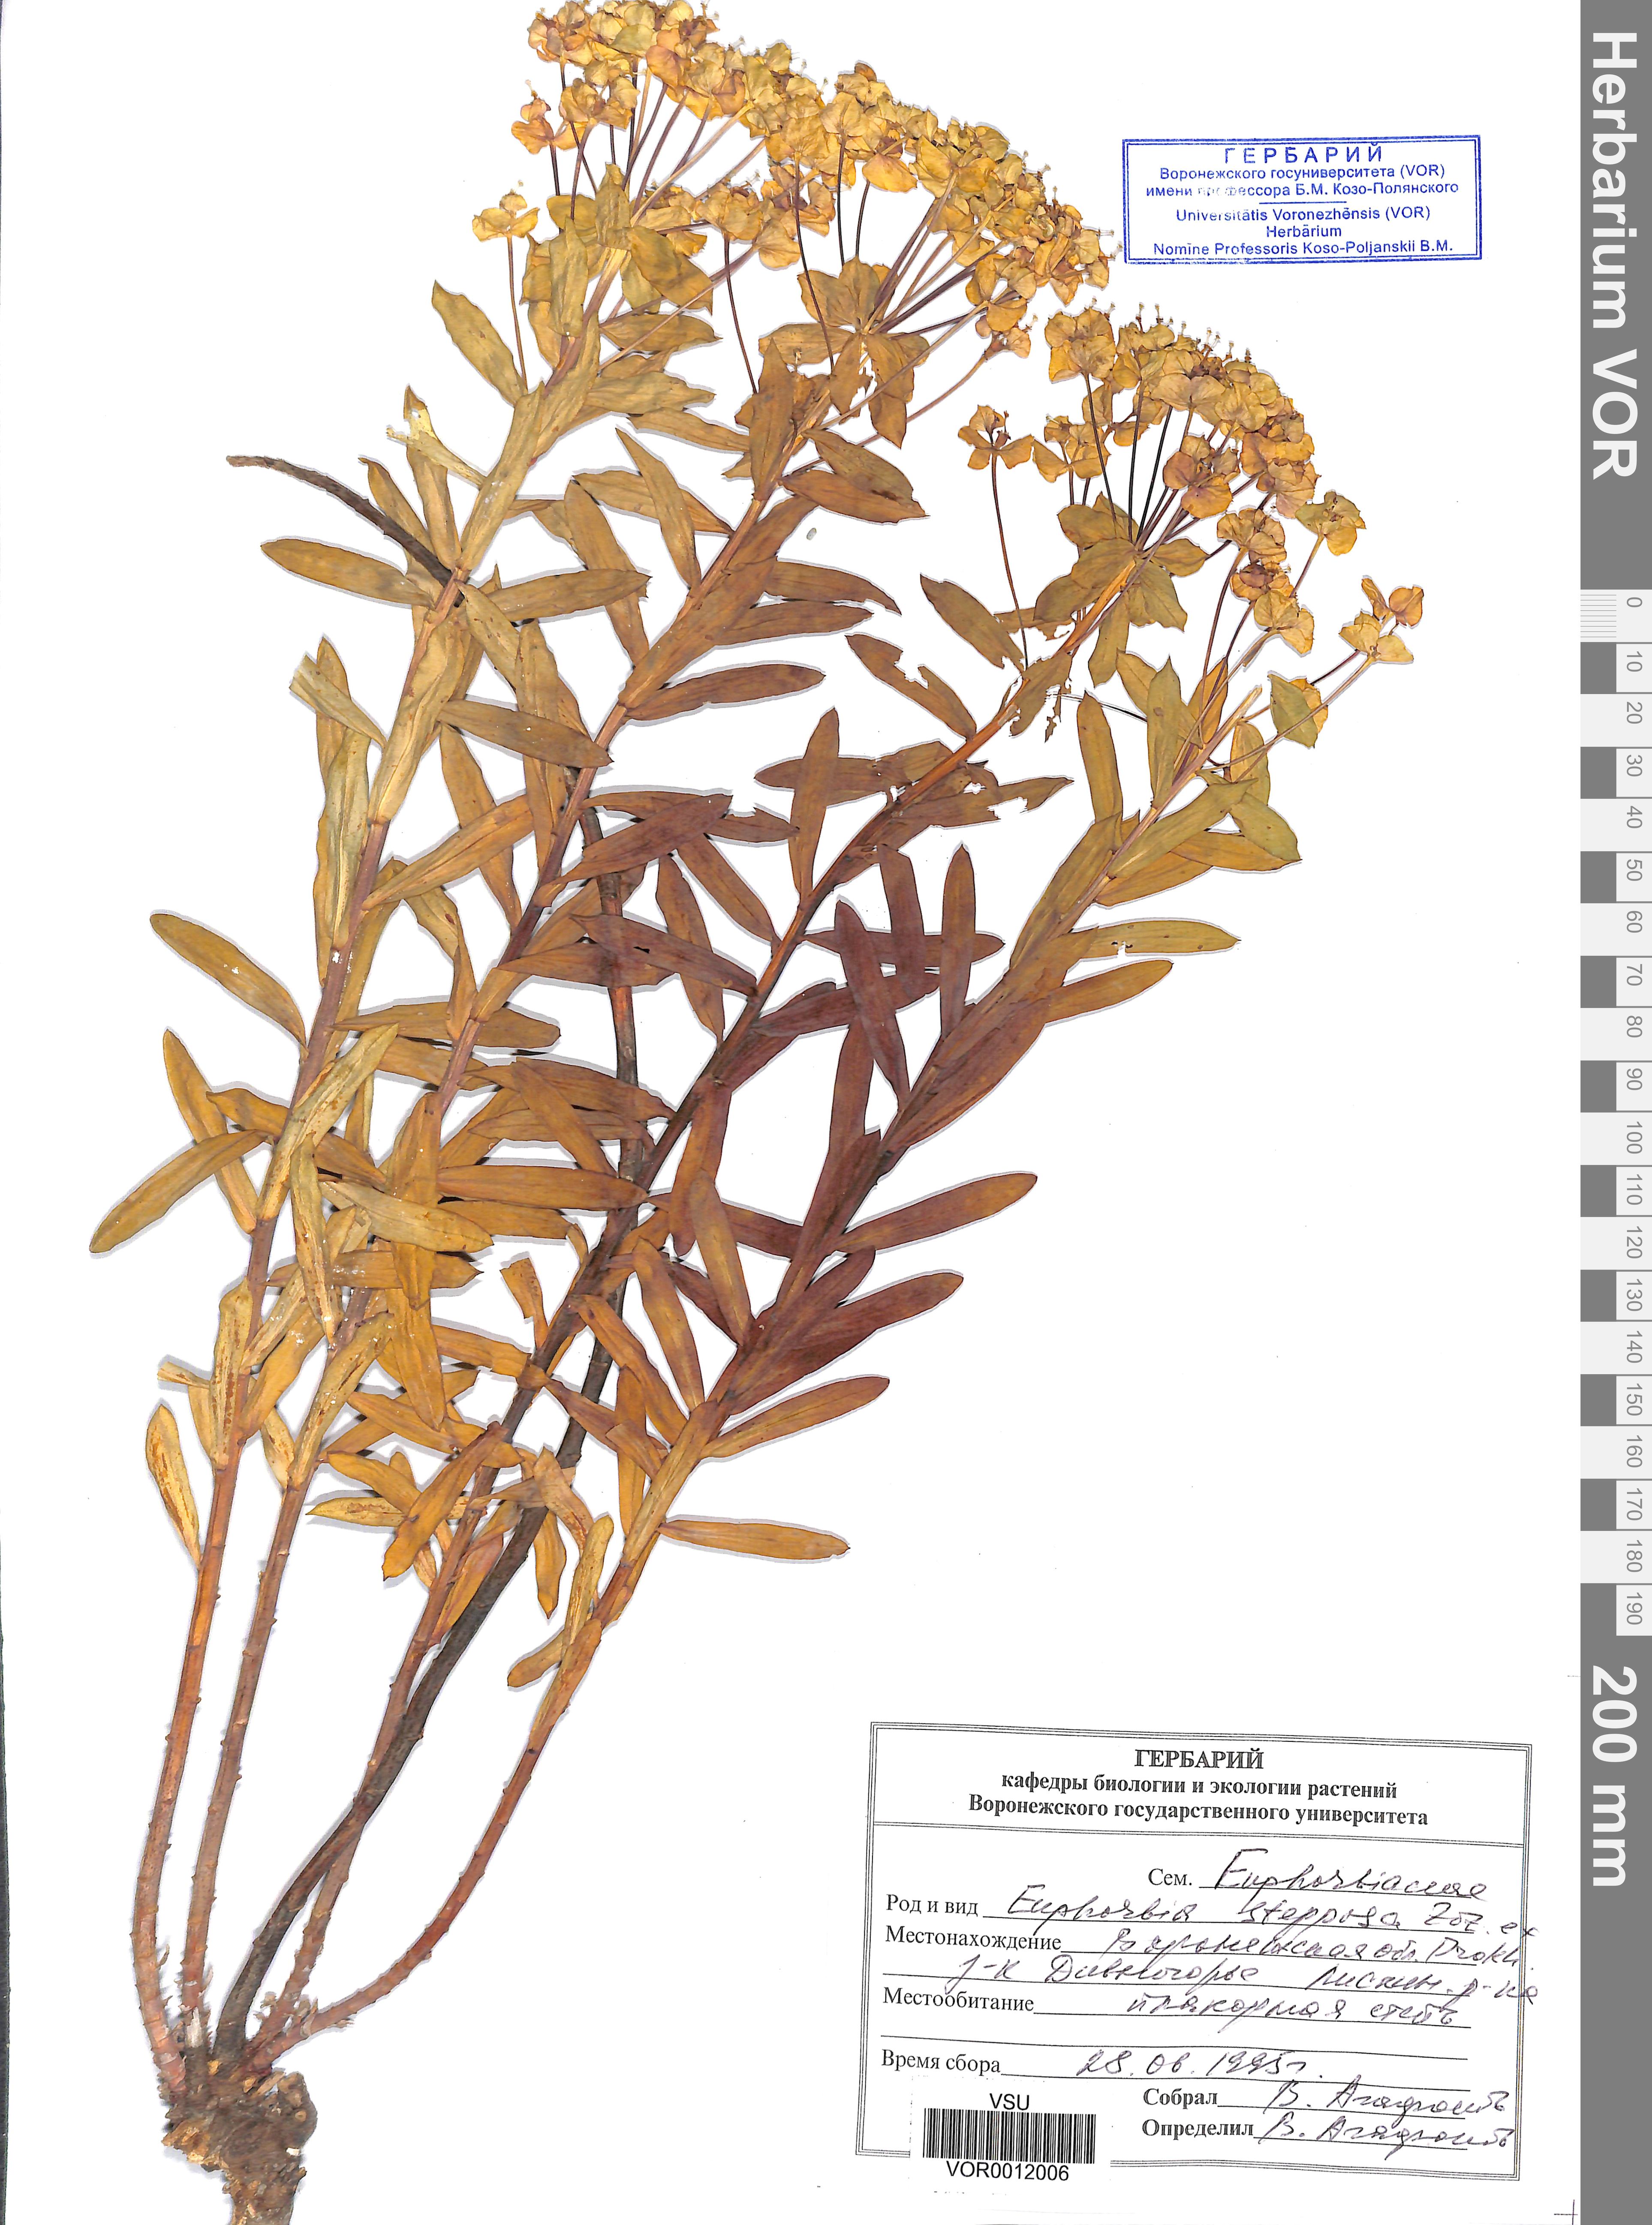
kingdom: Plantae
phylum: Tracheophyta
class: Magnoliopsida
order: Malpighiales
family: Euphorbiaceae
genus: Euphorbia
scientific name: Euphorbia stepposa
